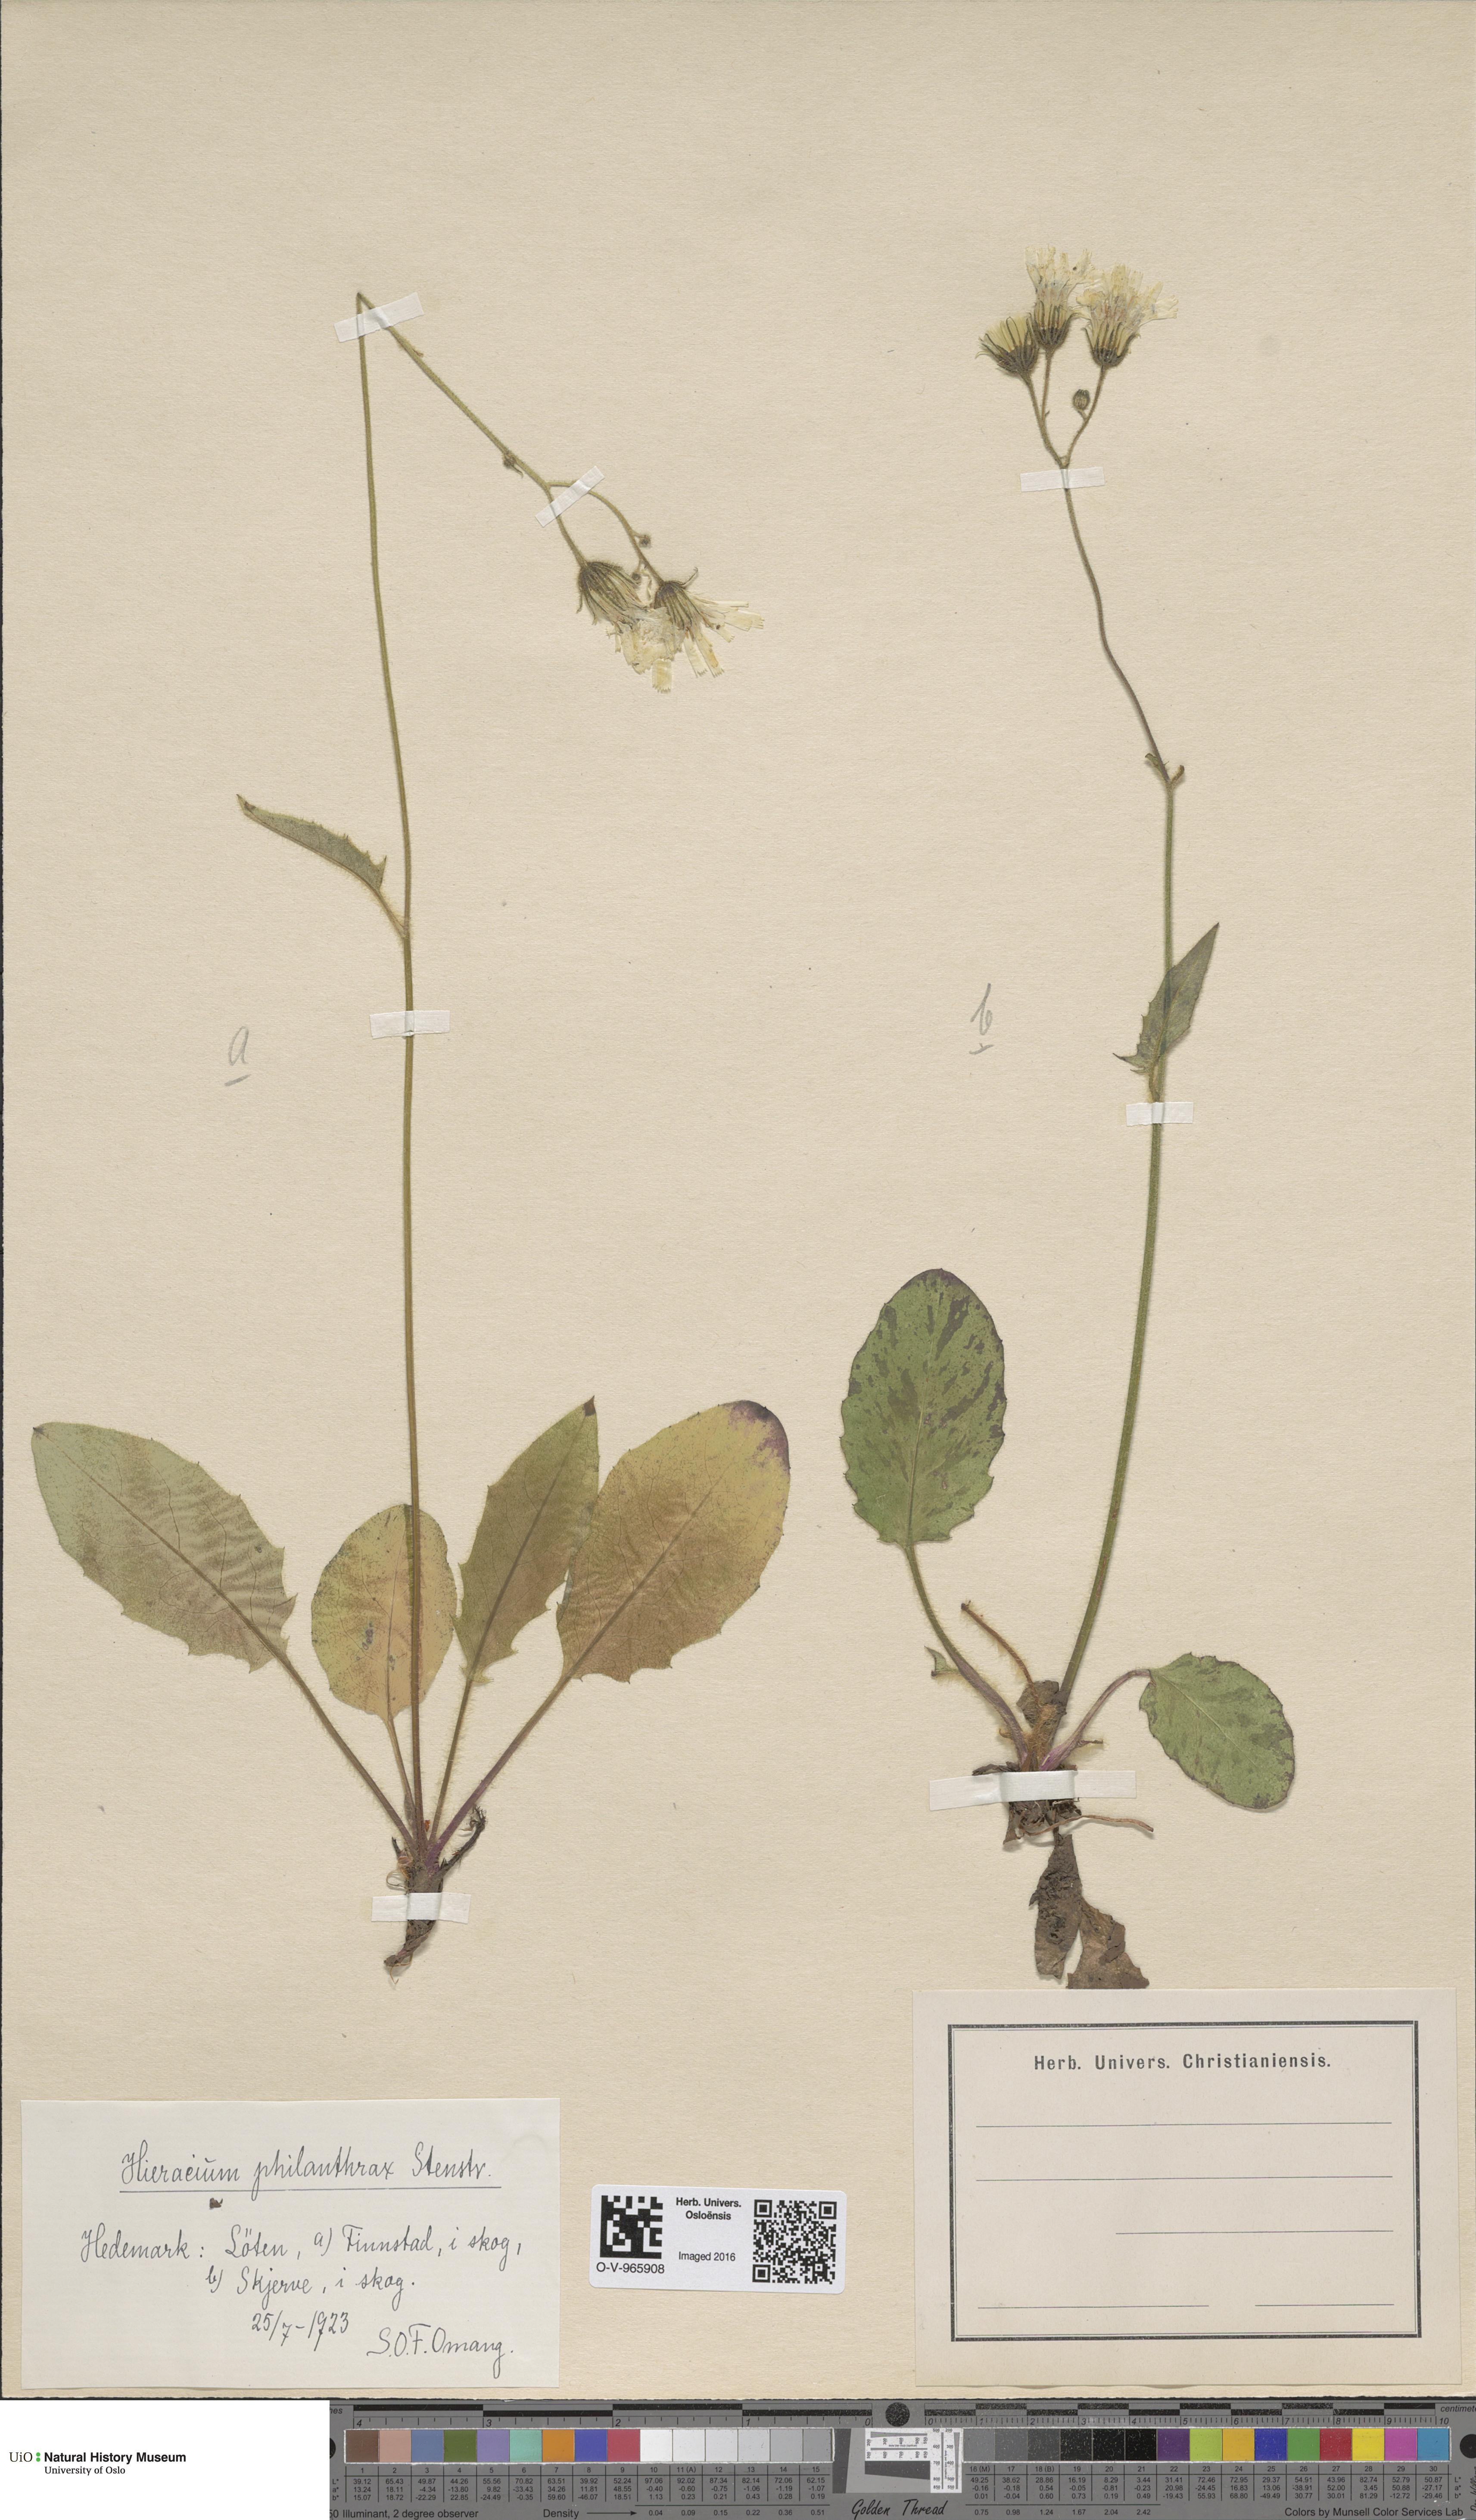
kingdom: Plantae
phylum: Tracheophyta
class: Magnoliopsida
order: Asterales
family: Asteraceae
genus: Hieracium
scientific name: Hieracium philanthrax
